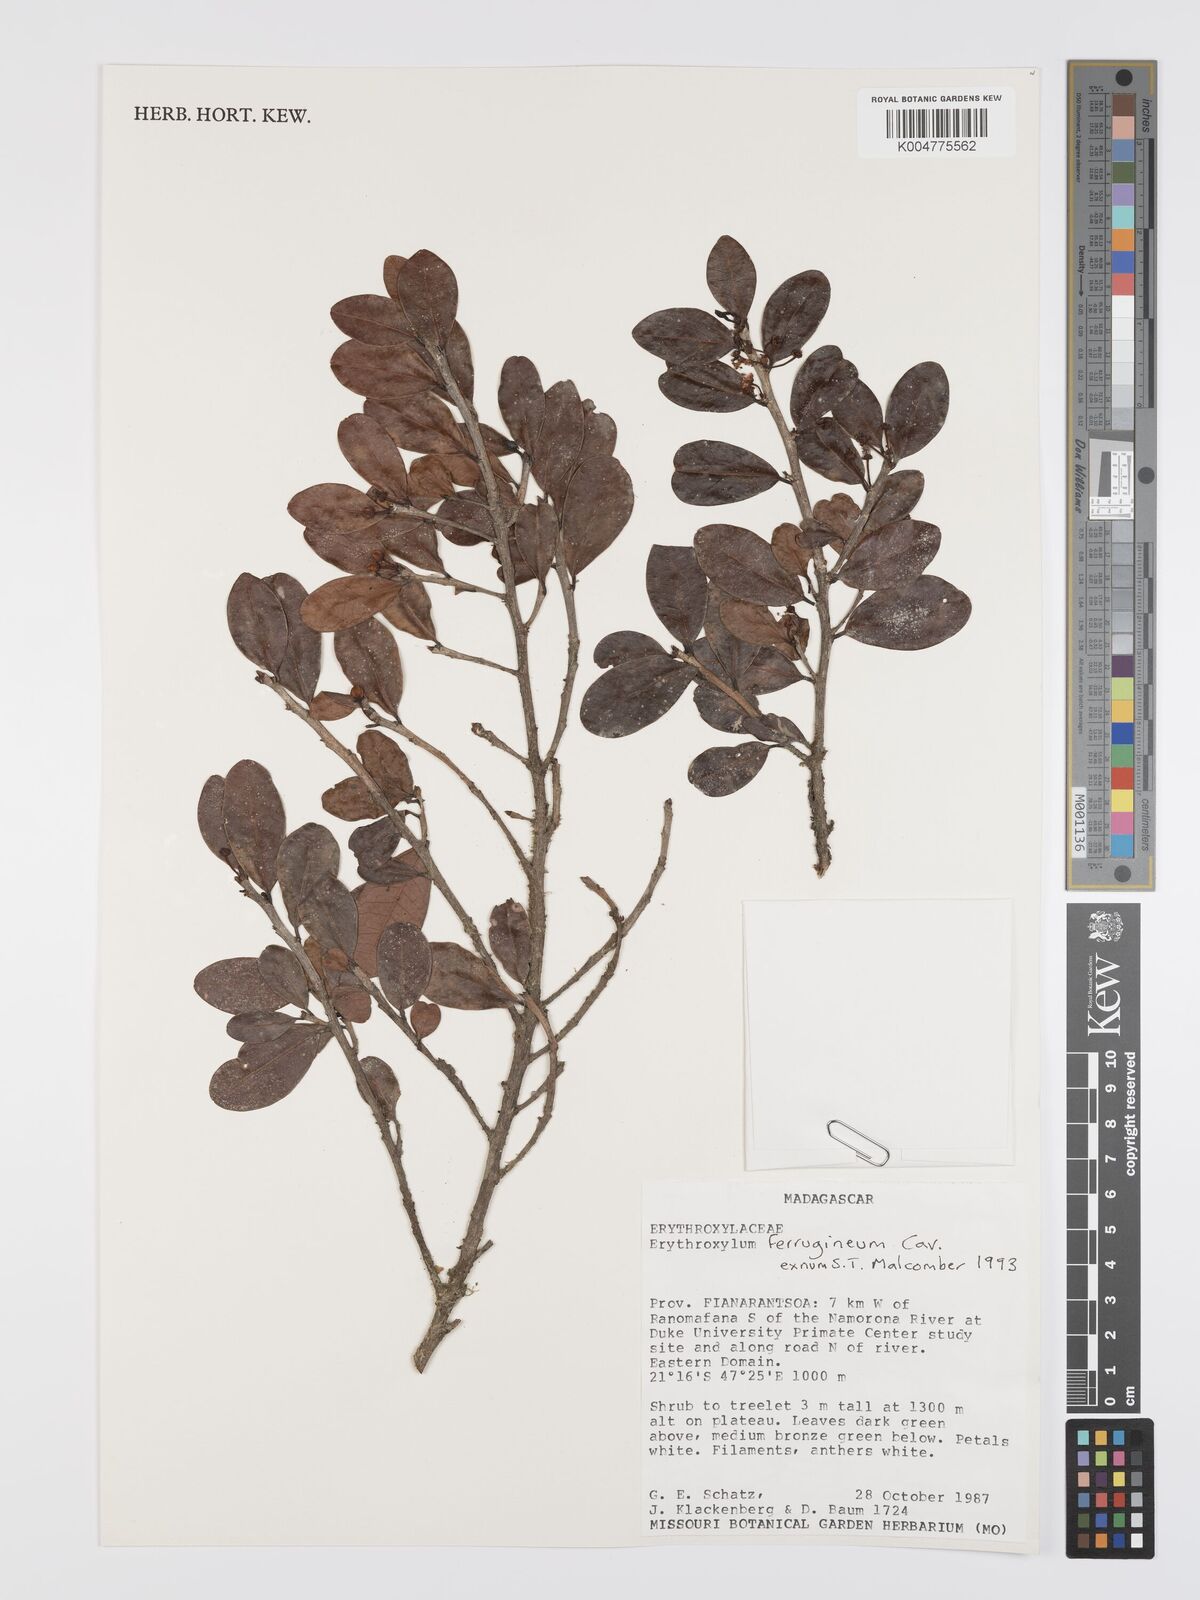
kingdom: Plantae
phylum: Tracheophyta
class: Magnoliopsida
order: Malpighiales
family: Erythroxylaceae
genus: Erythroxylum
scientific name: Erythroxylum ferrugineum
